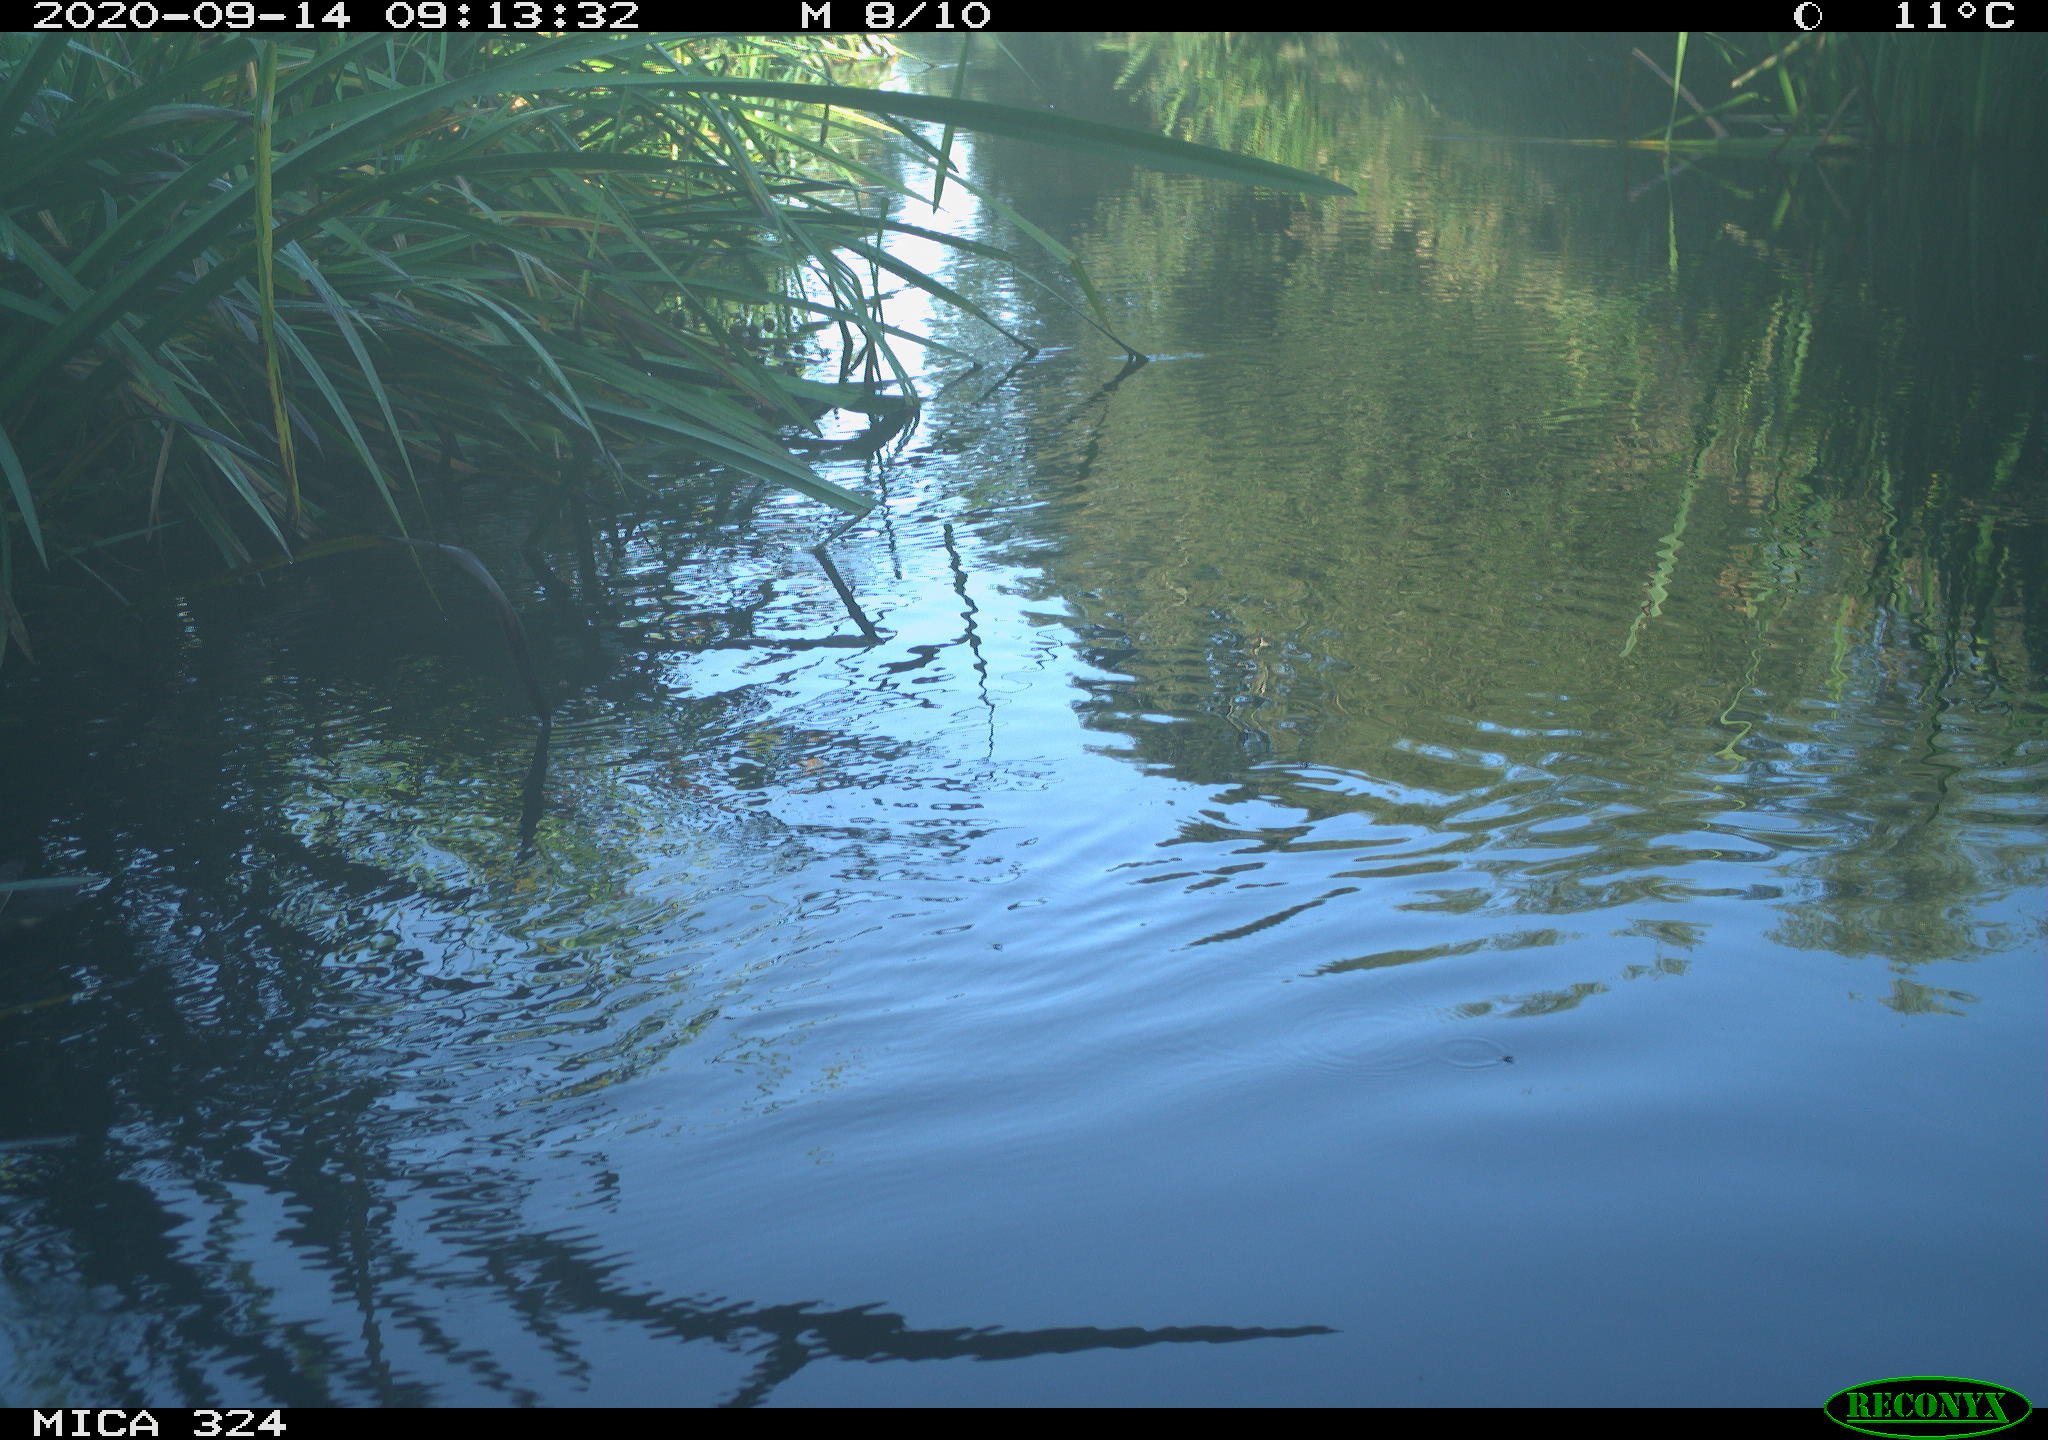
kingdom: Animalia
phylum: Chordata
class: Aves
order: Gruiformes
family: Rallidae
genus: Gallinula
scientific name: Gallinula chloropus
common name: Common moorhen
